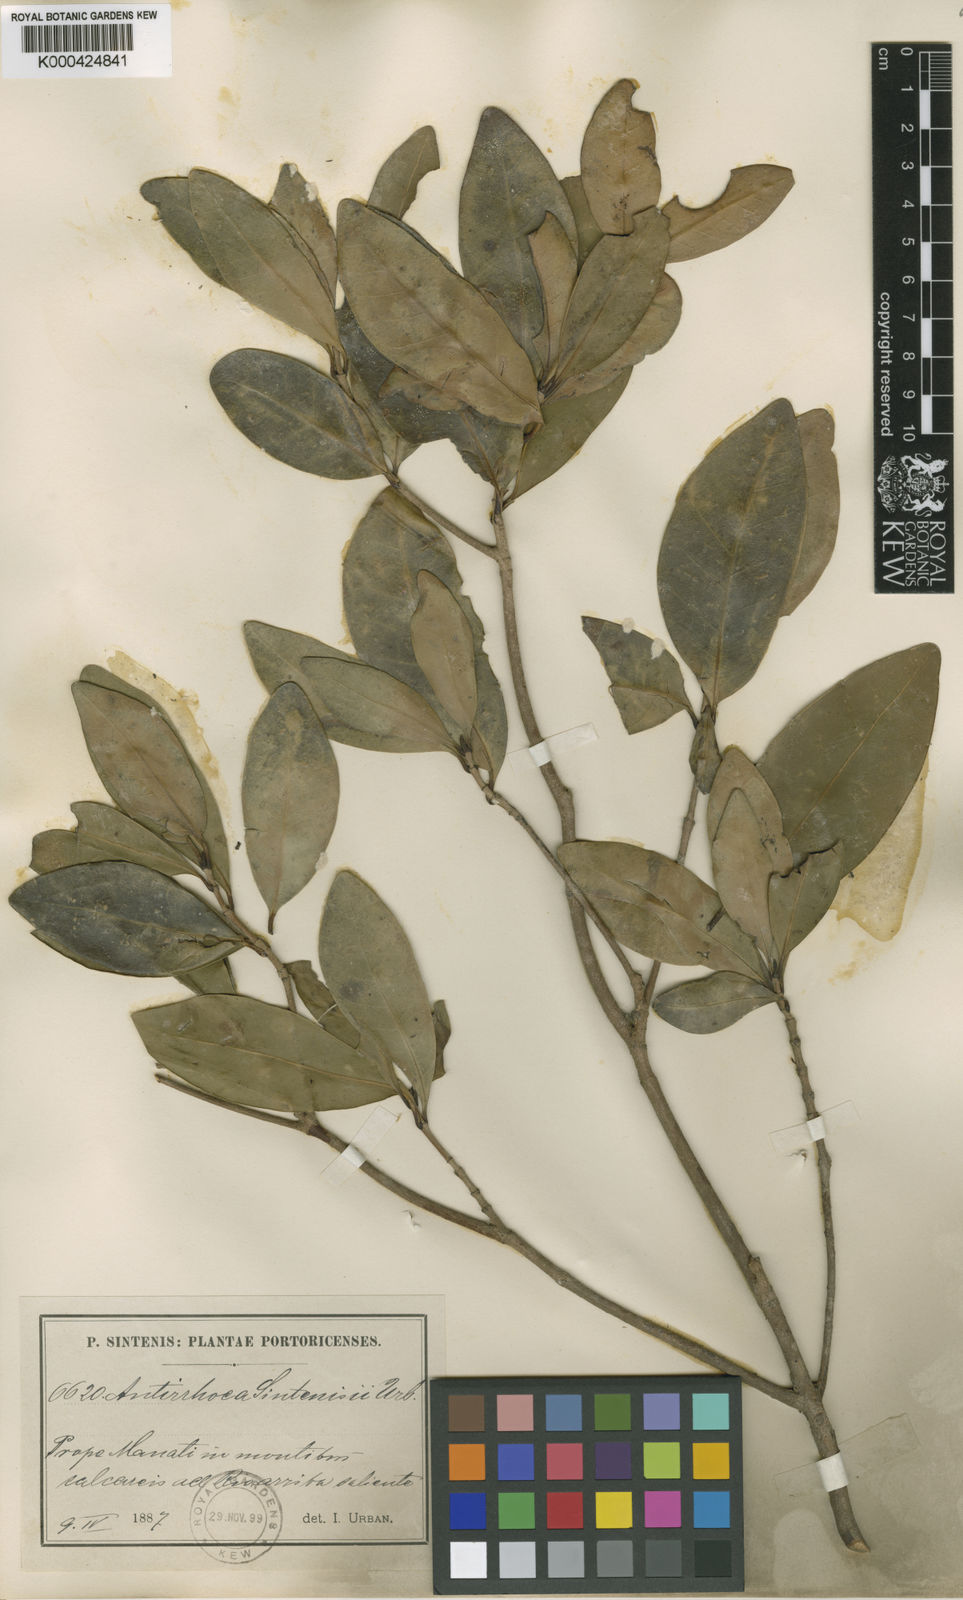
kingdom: Plantae
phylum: Tracheophyta
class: Magnoliopsida
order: Gentianales
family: Rubiaceae
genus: Stenostomum
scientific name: Stenostomum sintenisii
